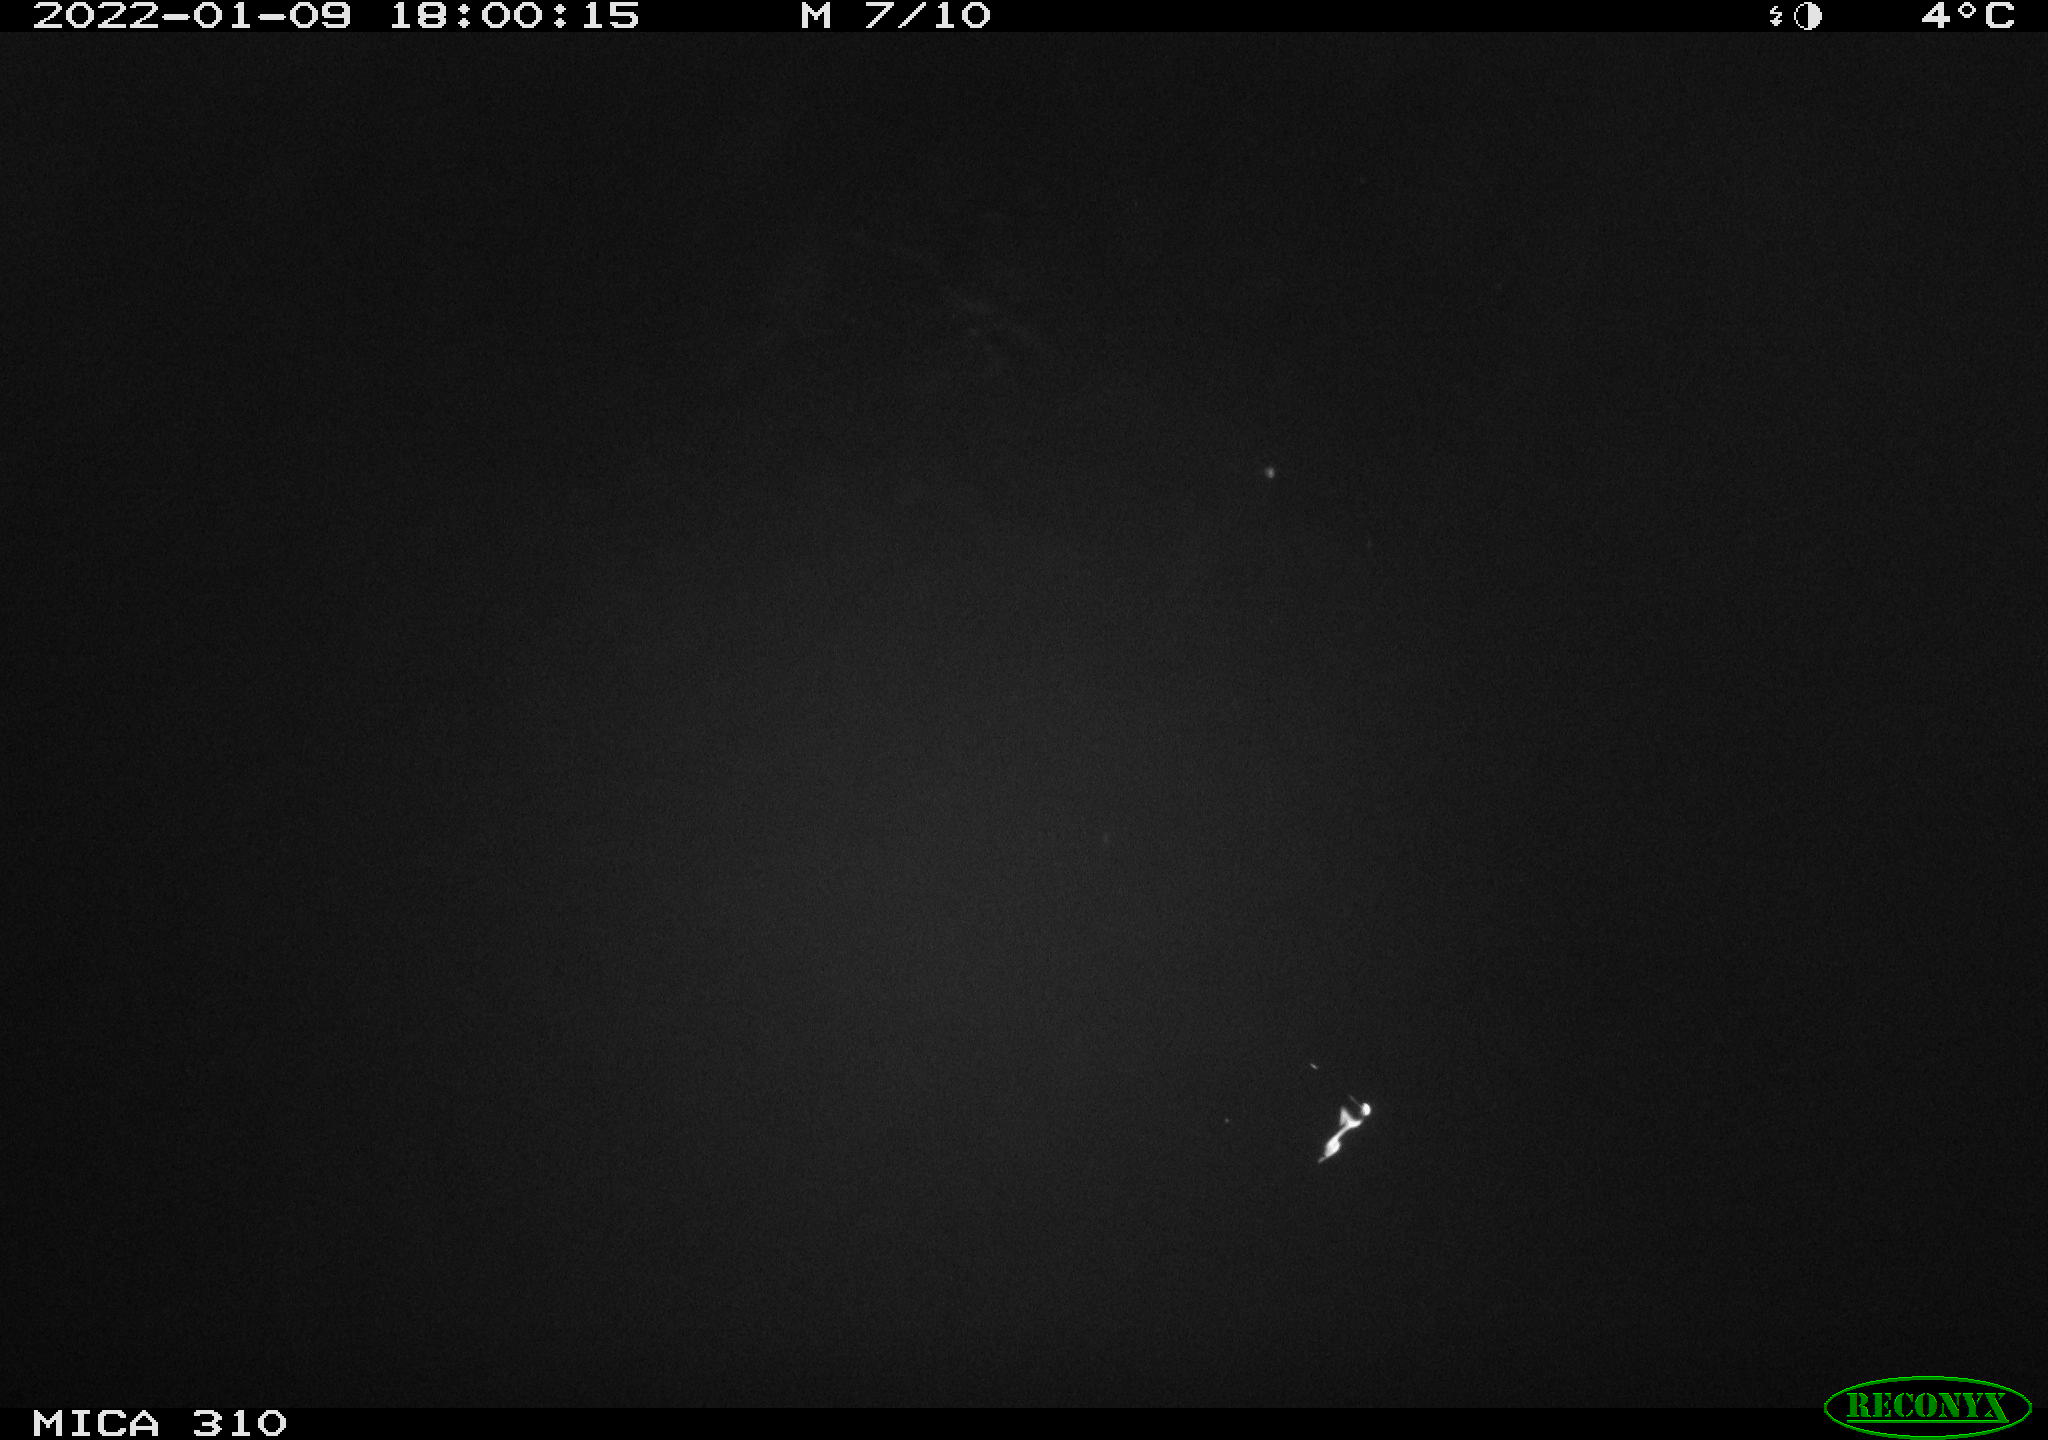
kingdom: Animalia
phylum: Chordata
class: Mammalia
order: Rodentia
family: Cricetidae
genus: Ondatra
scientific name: Ondatra zibethicus
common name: Muskrat
